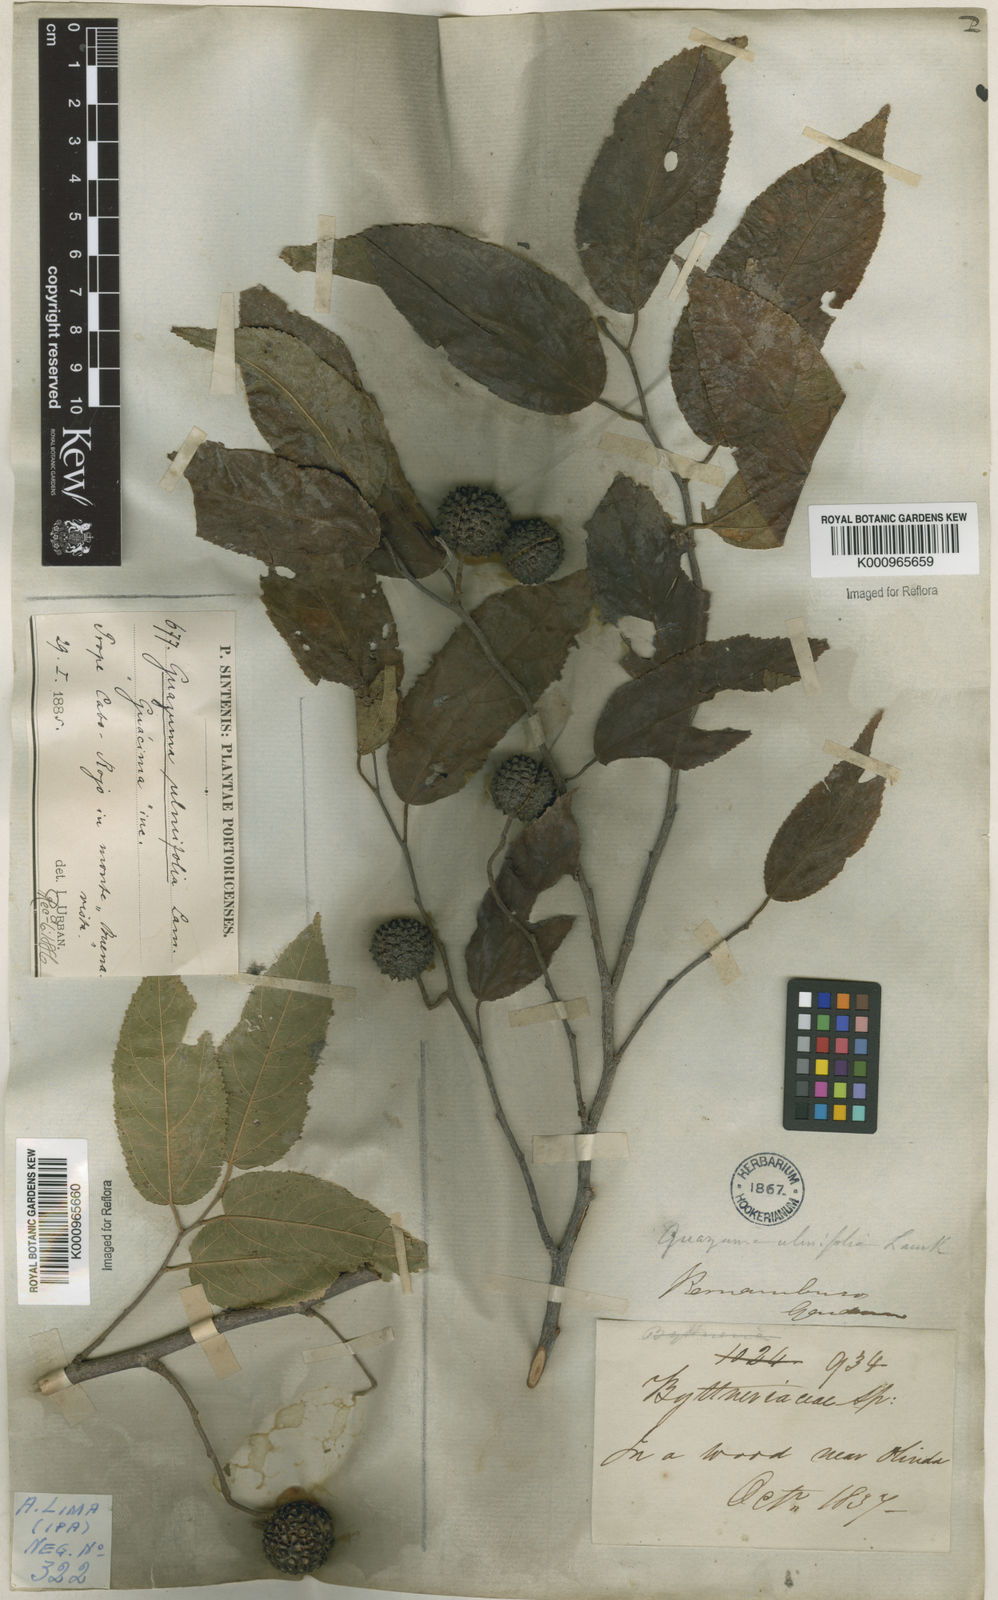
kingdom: Plantae
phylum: Tracheophyta
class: Magnoliopsida
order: Malvales
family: Malvaceae
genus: Guazuma
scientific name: Guazuma ulmifolia
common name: Bastard-cedar
